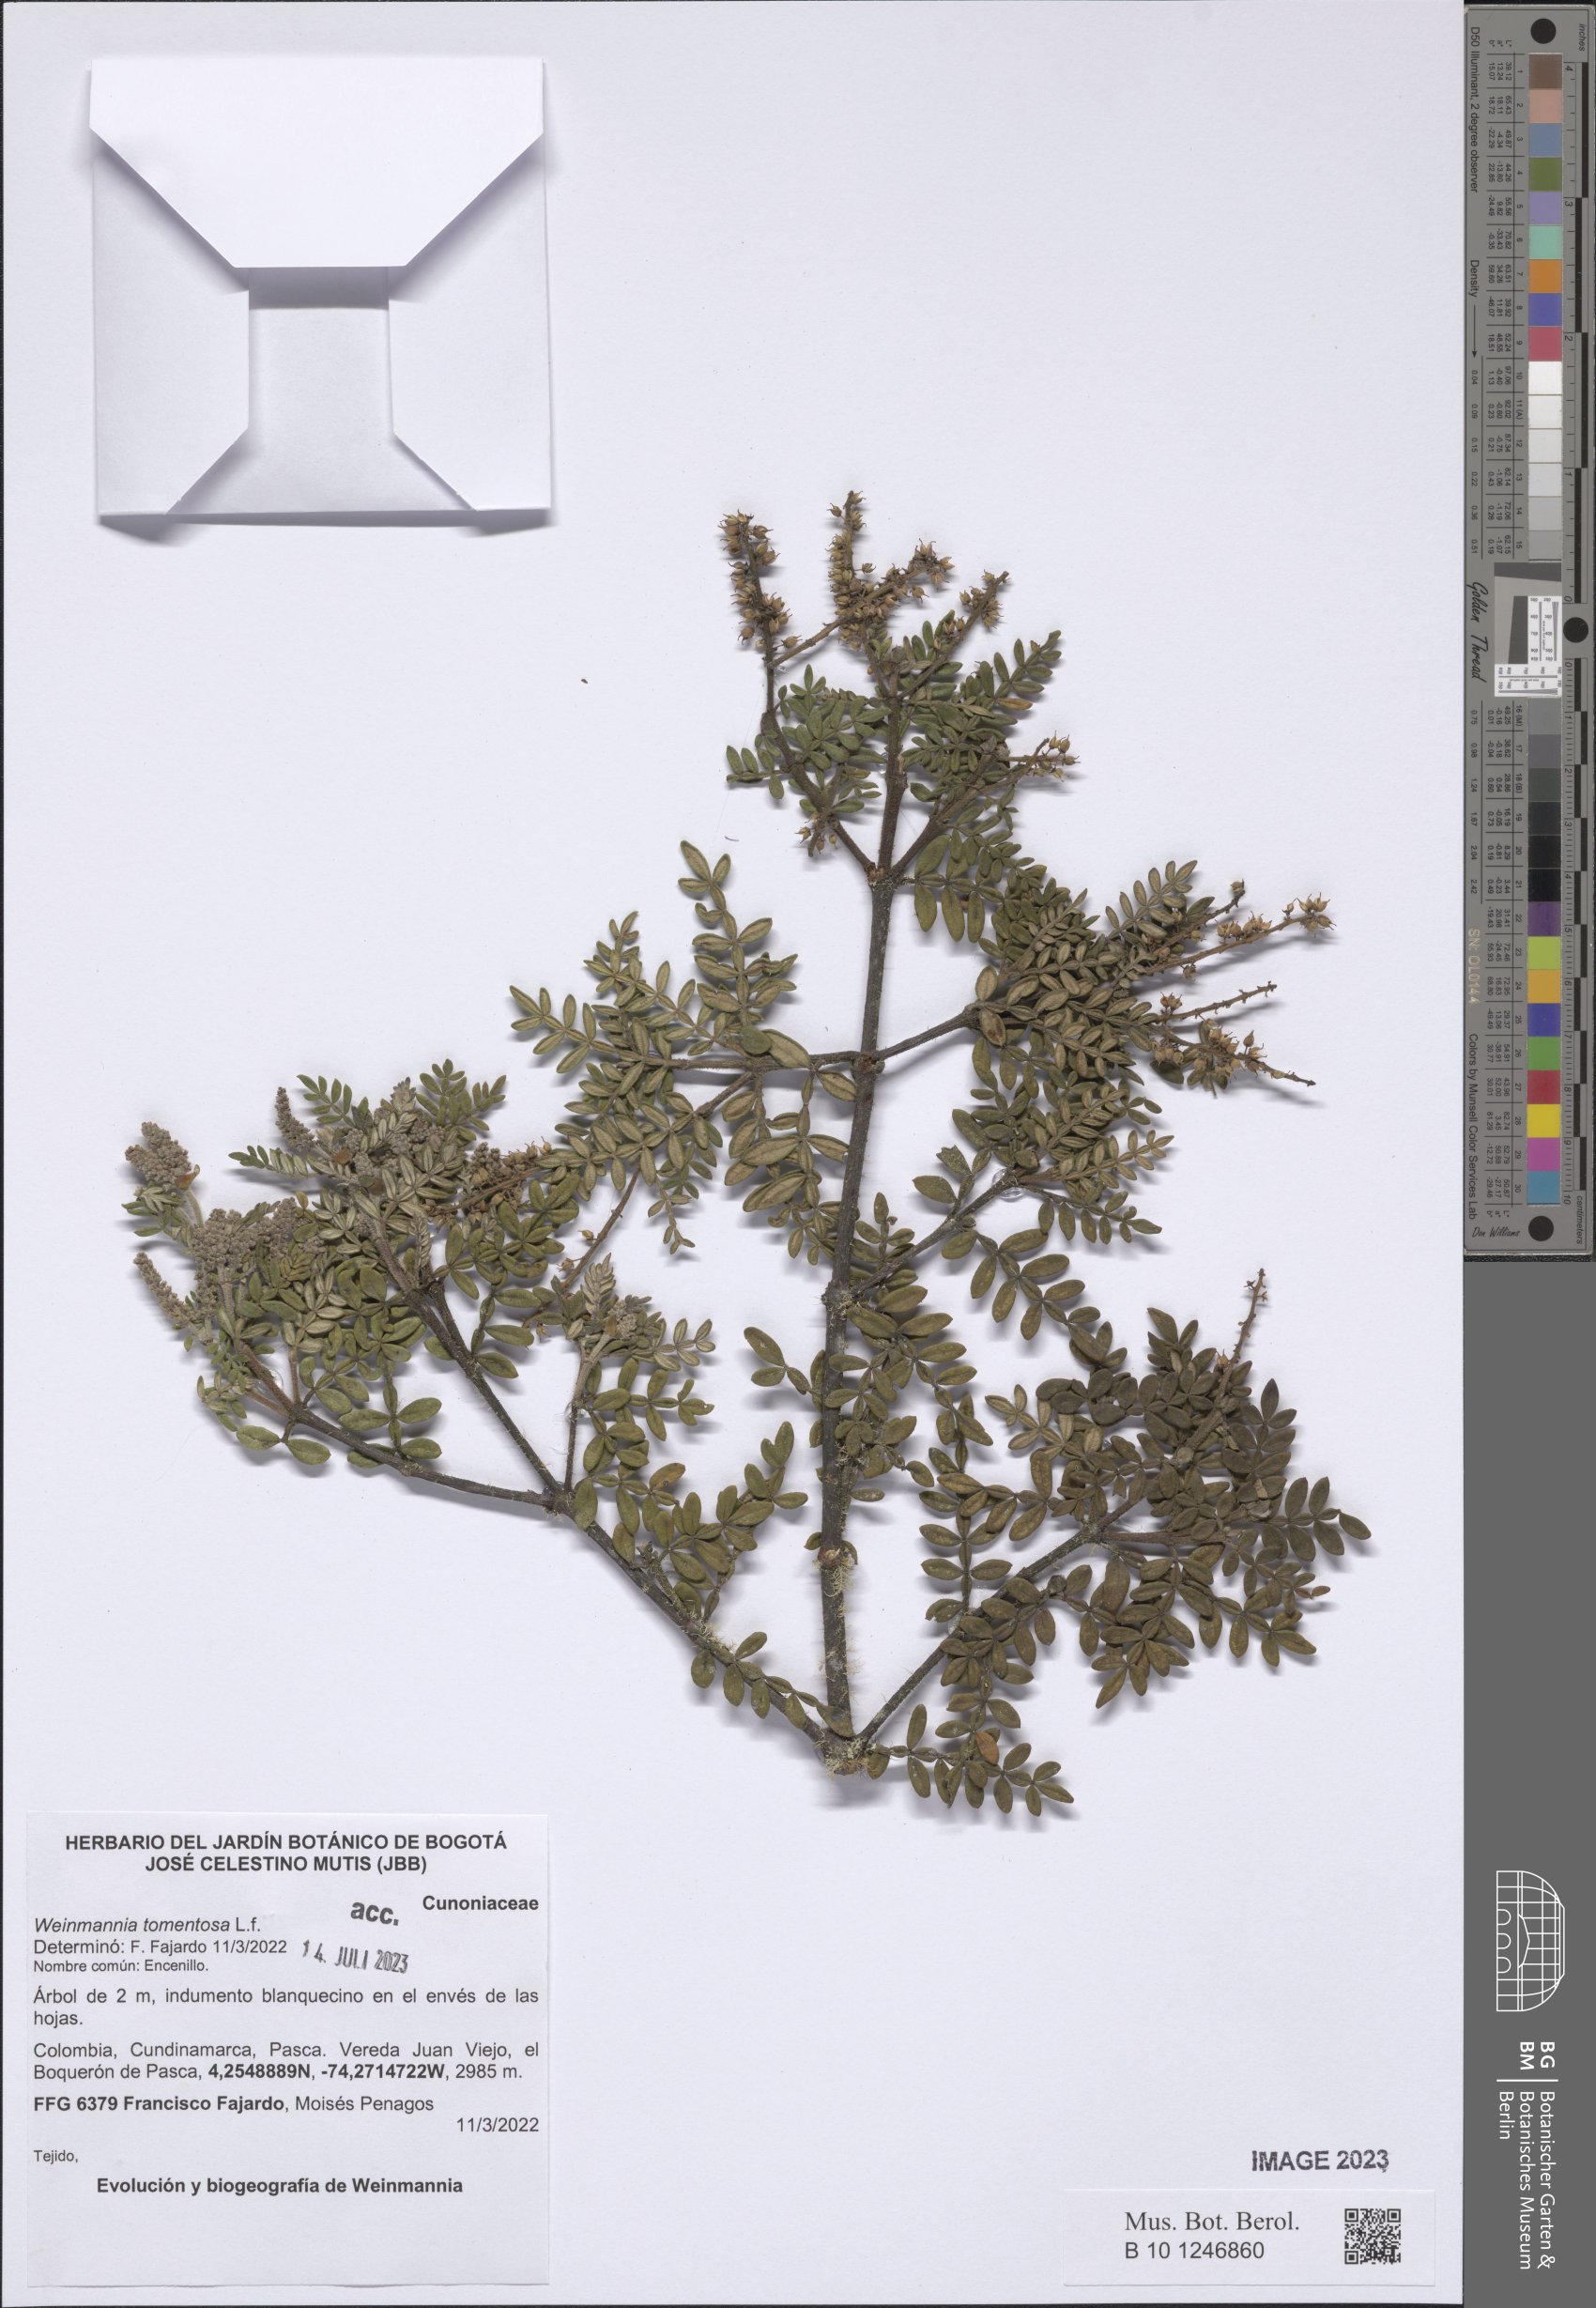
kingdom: Plantae
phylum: Tracheophyta
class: Magnoliopsida
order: Oxalidales
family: Cunoniaceae
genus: Weinmannia
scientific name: Weinmannia tomentosa
